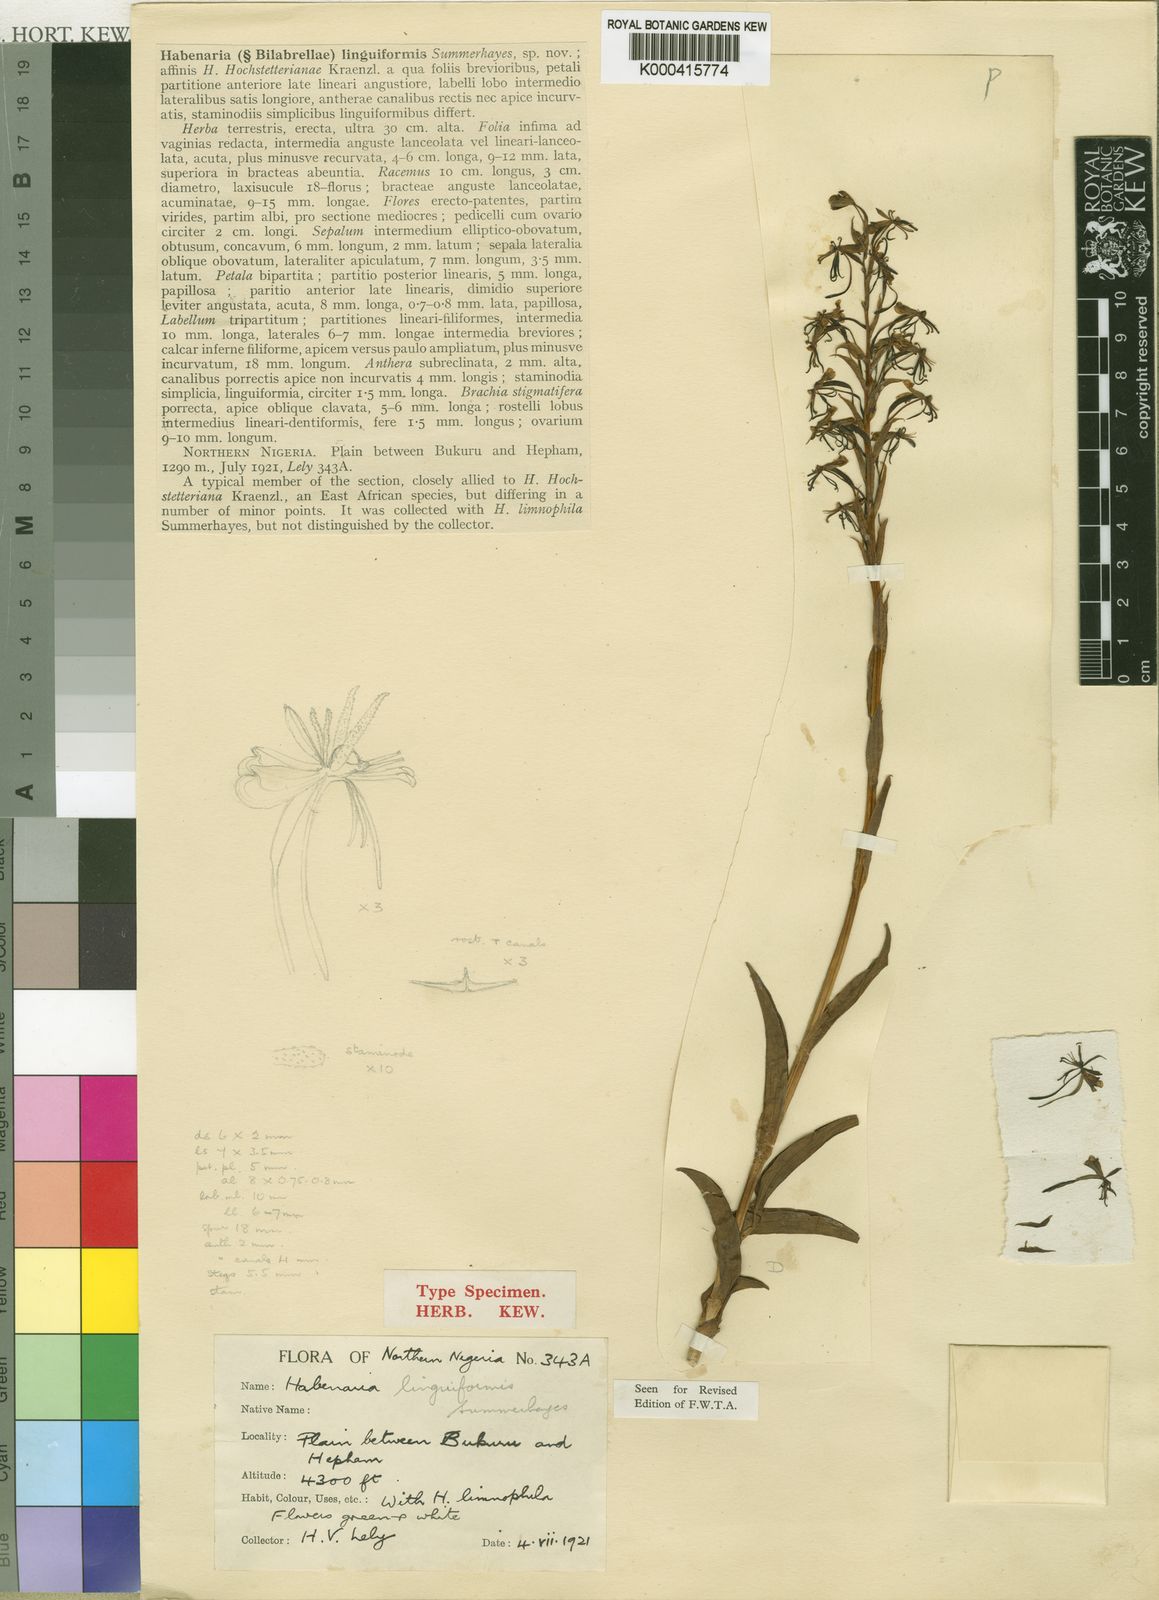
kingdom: Plantae
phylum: Tracheophyta
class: Liliopsida
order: Asparagales
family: Orchidaceae
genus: Habenaria
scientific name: Habenaria linguiformis
